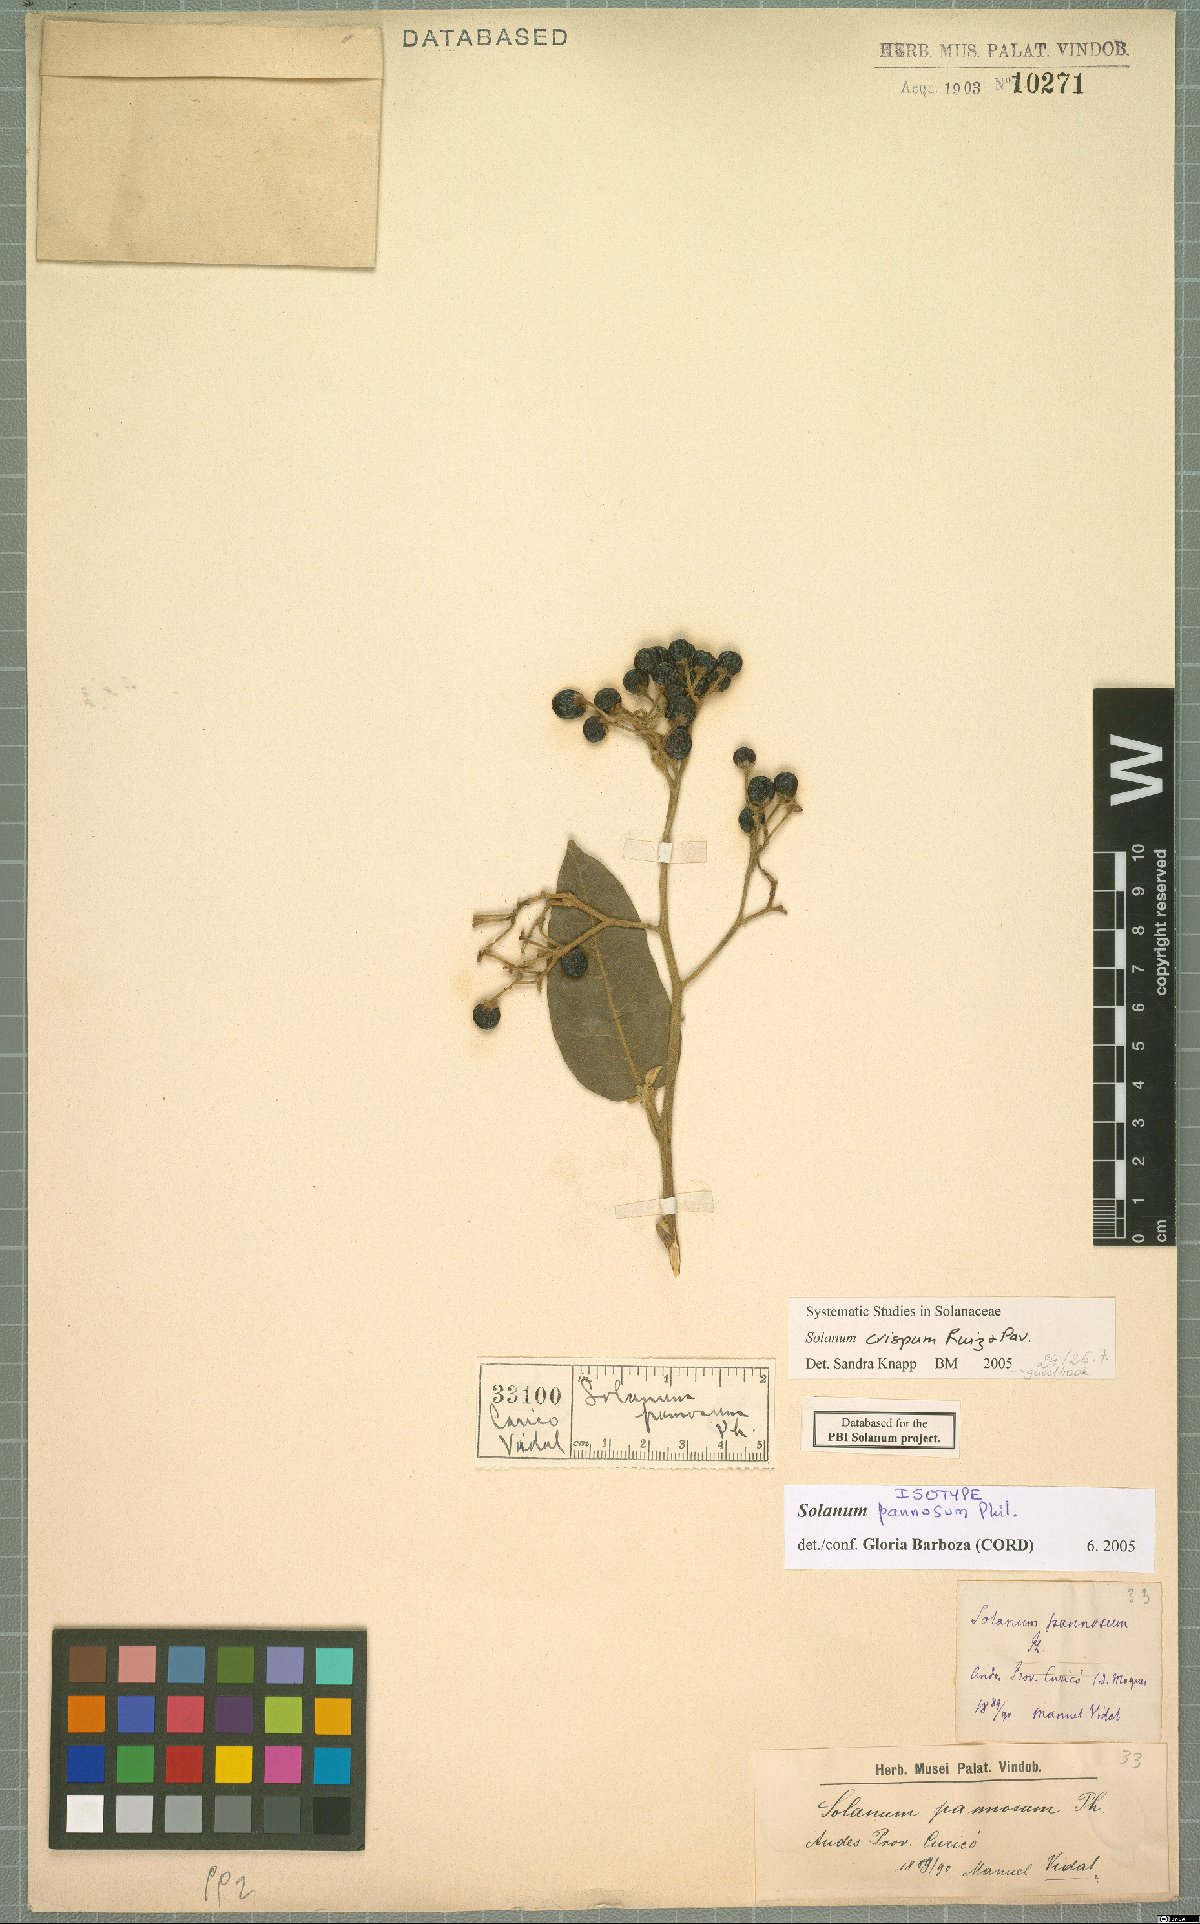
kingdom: Plantae
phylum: Tracheophyta
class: Magnoliopsida
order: Solanales
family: Solanaceae
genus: Solanum
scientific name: Solanum crispum
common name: Chilean nightshade
